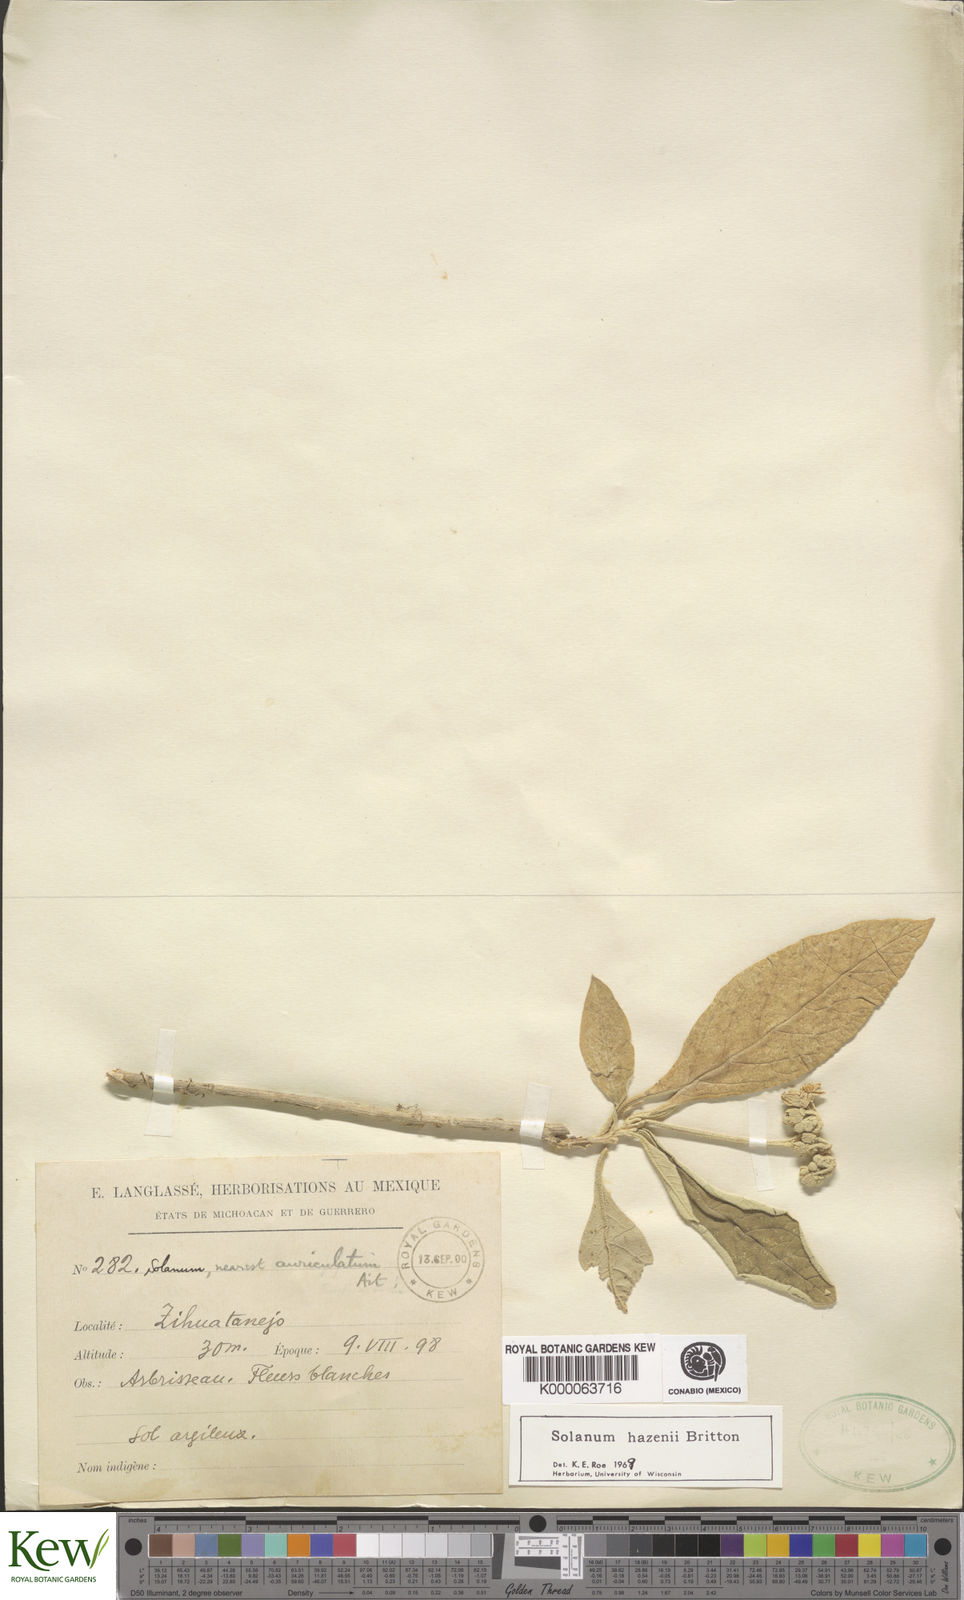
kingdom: Plantae
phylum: Tracheophyta
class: Magnoliopsida
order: Solanales
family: Solanaceae
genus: Solanum
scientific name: Solanum hazenii
